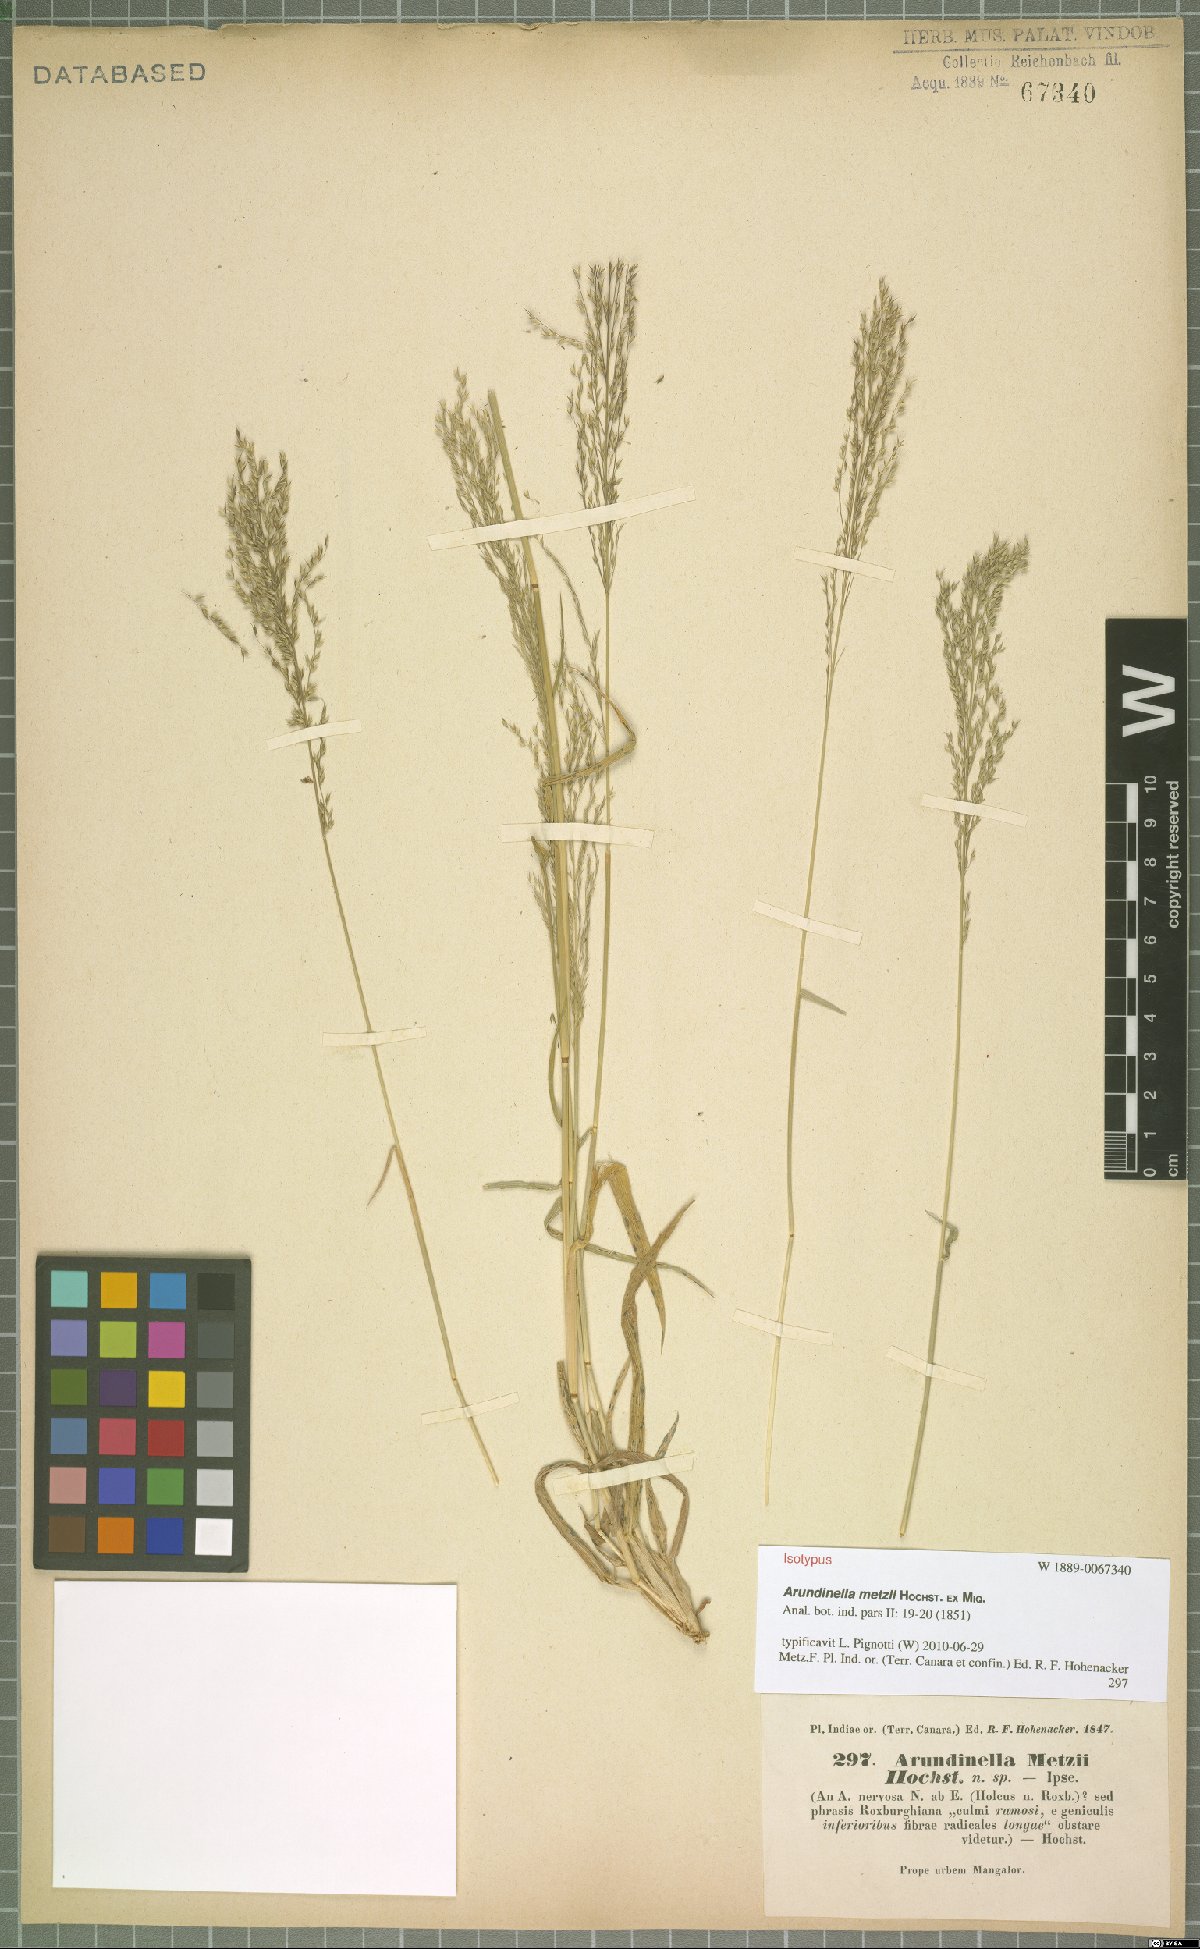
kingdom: Plantae
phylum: Tracheophyta
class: Liliopsida
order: Poales
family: Poaceae
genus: Arundinella
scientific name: Arundinella metzii
